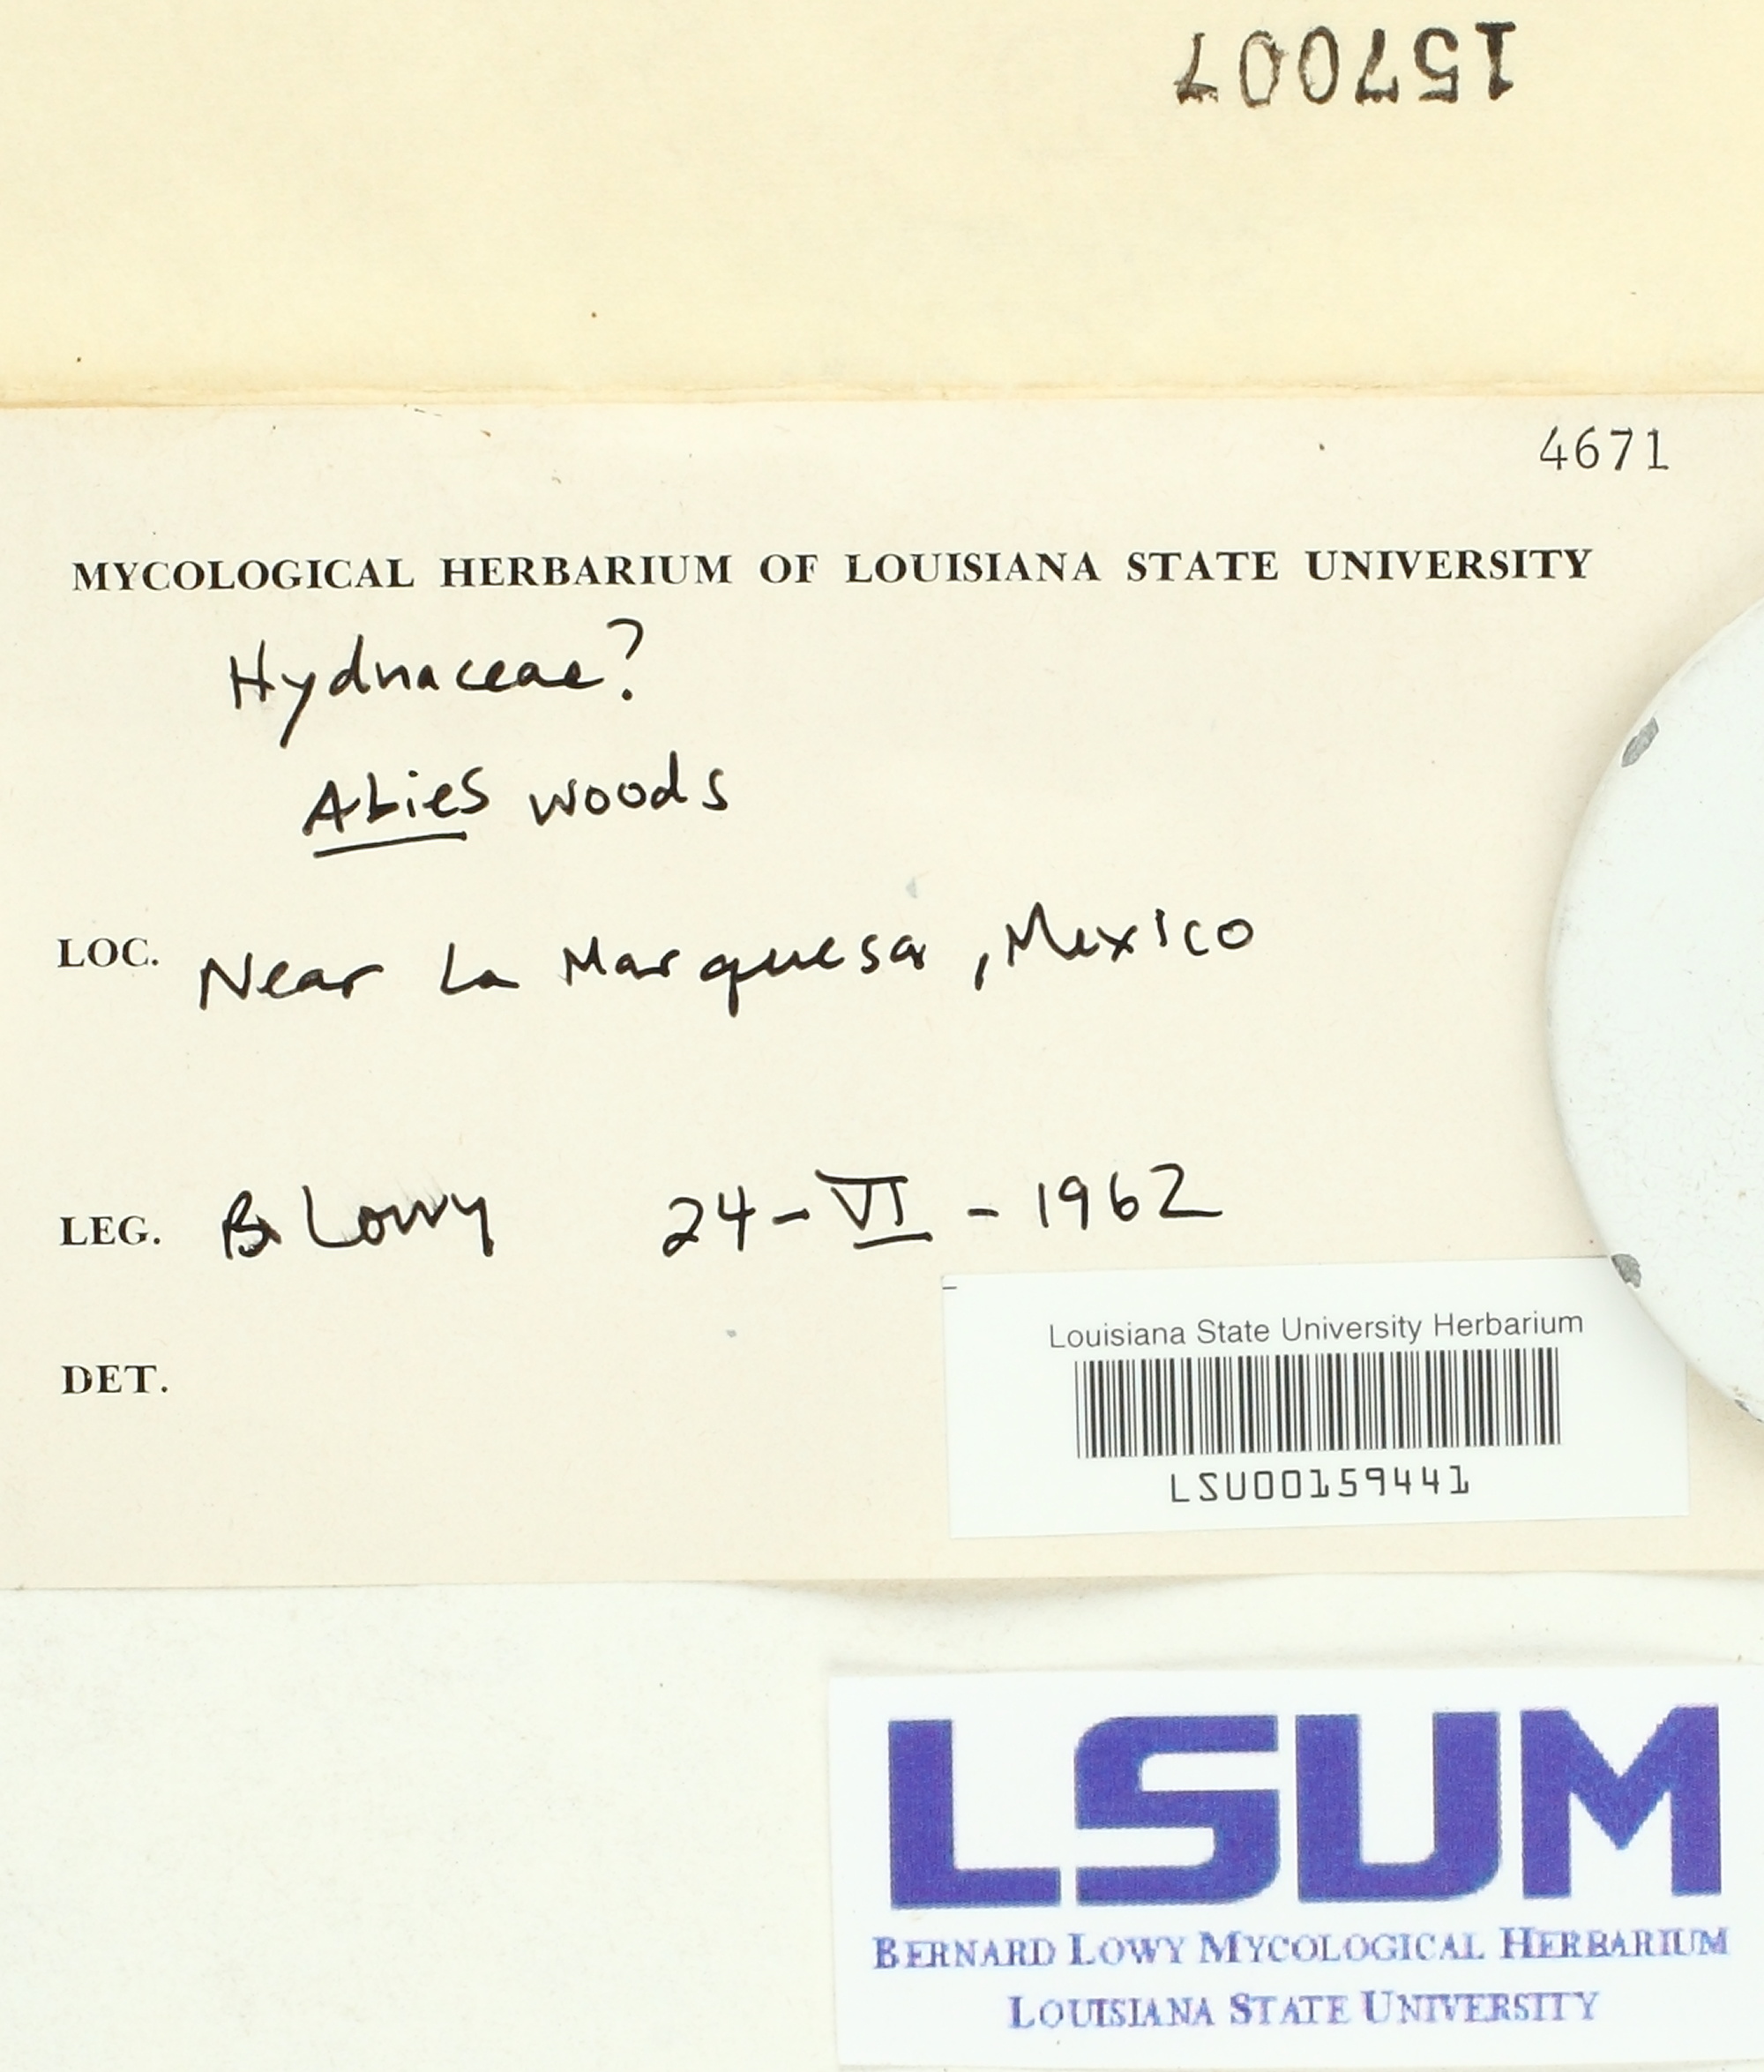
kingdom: Fungi
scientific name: Fungi
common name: Fungi
